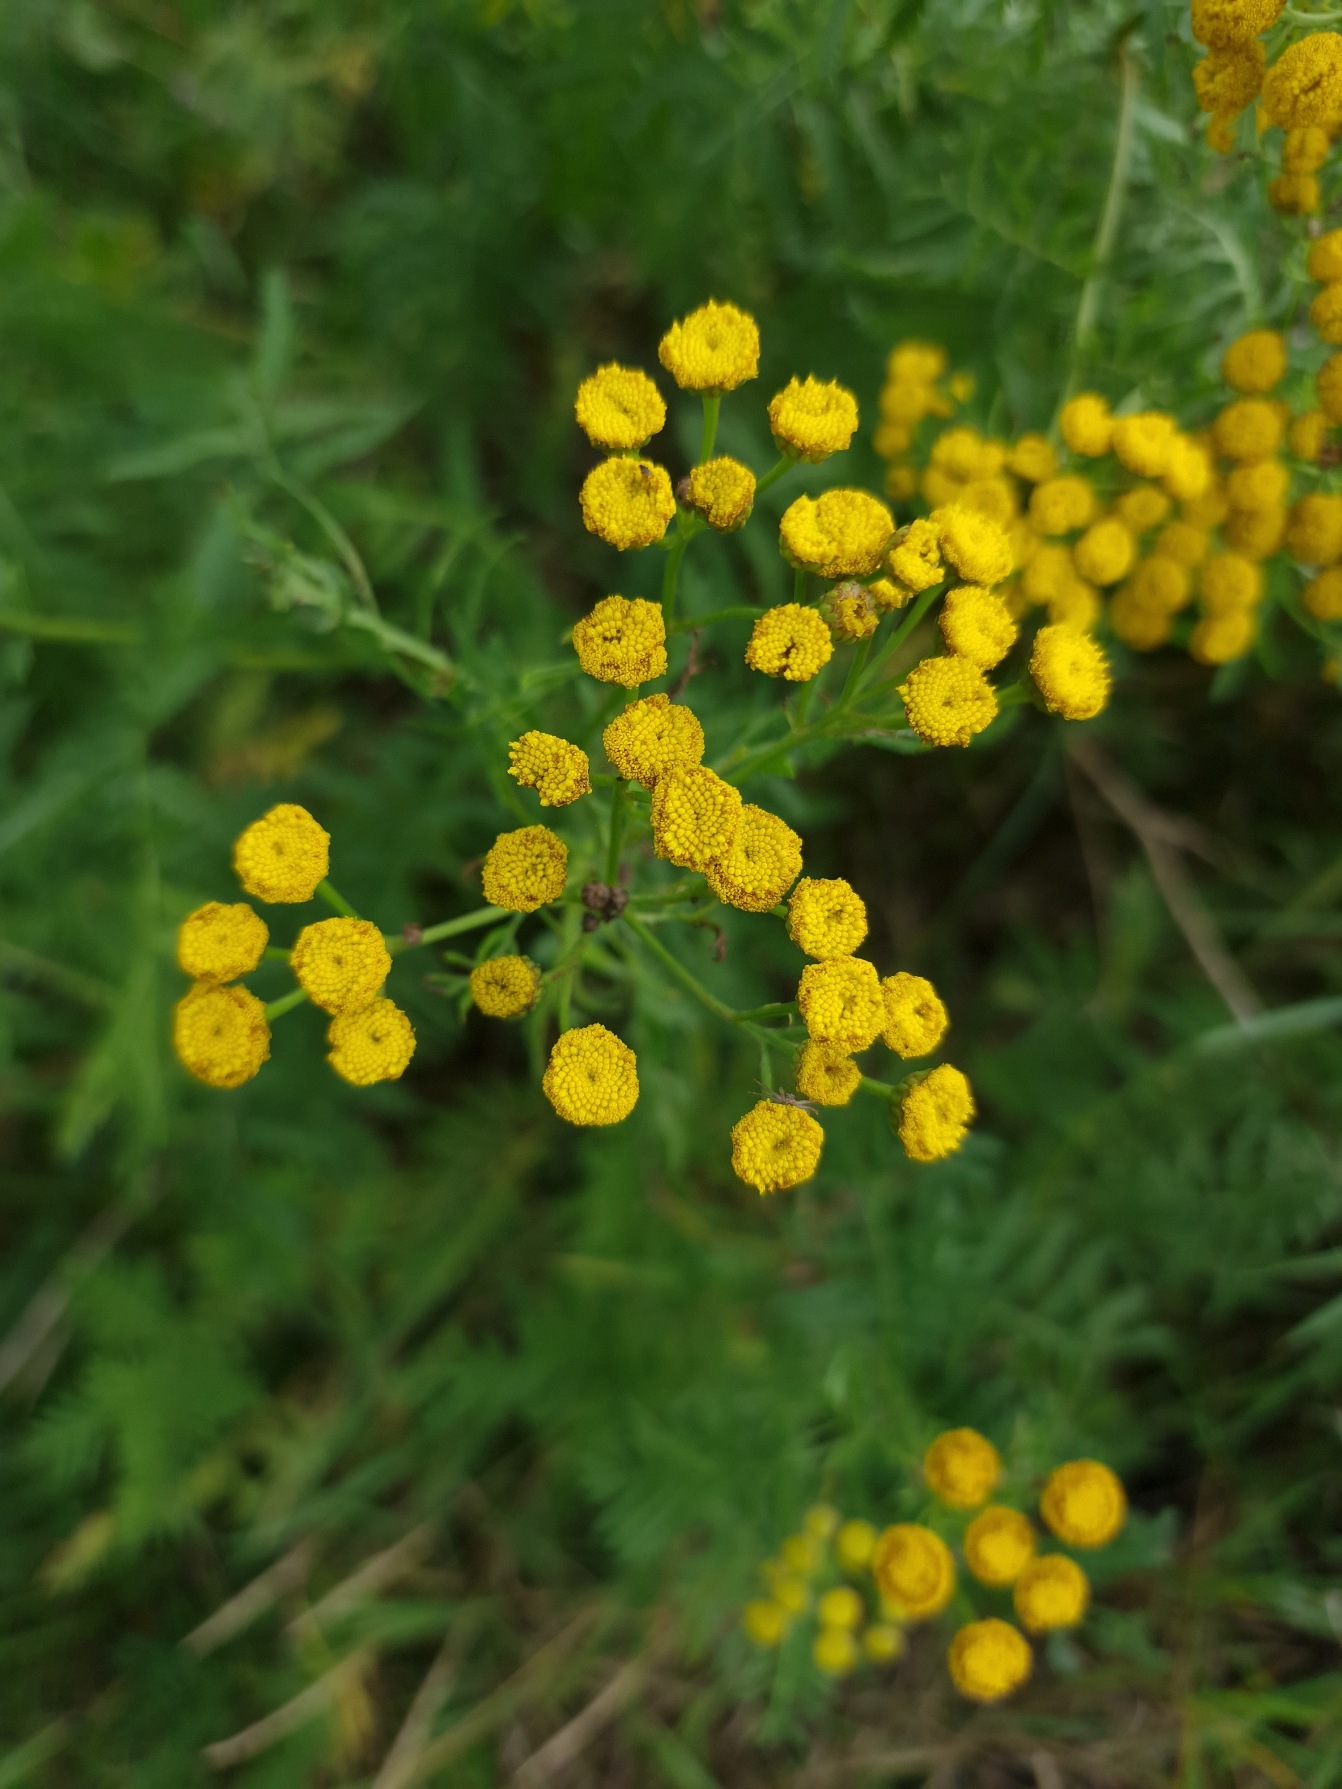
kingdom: Plantae
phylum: Tracheophyta
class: Magnoliopsida
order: Asterales
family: Asteraceae
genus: Tanacetum
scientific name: Tanacetum vulgare
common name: Rejnfan
